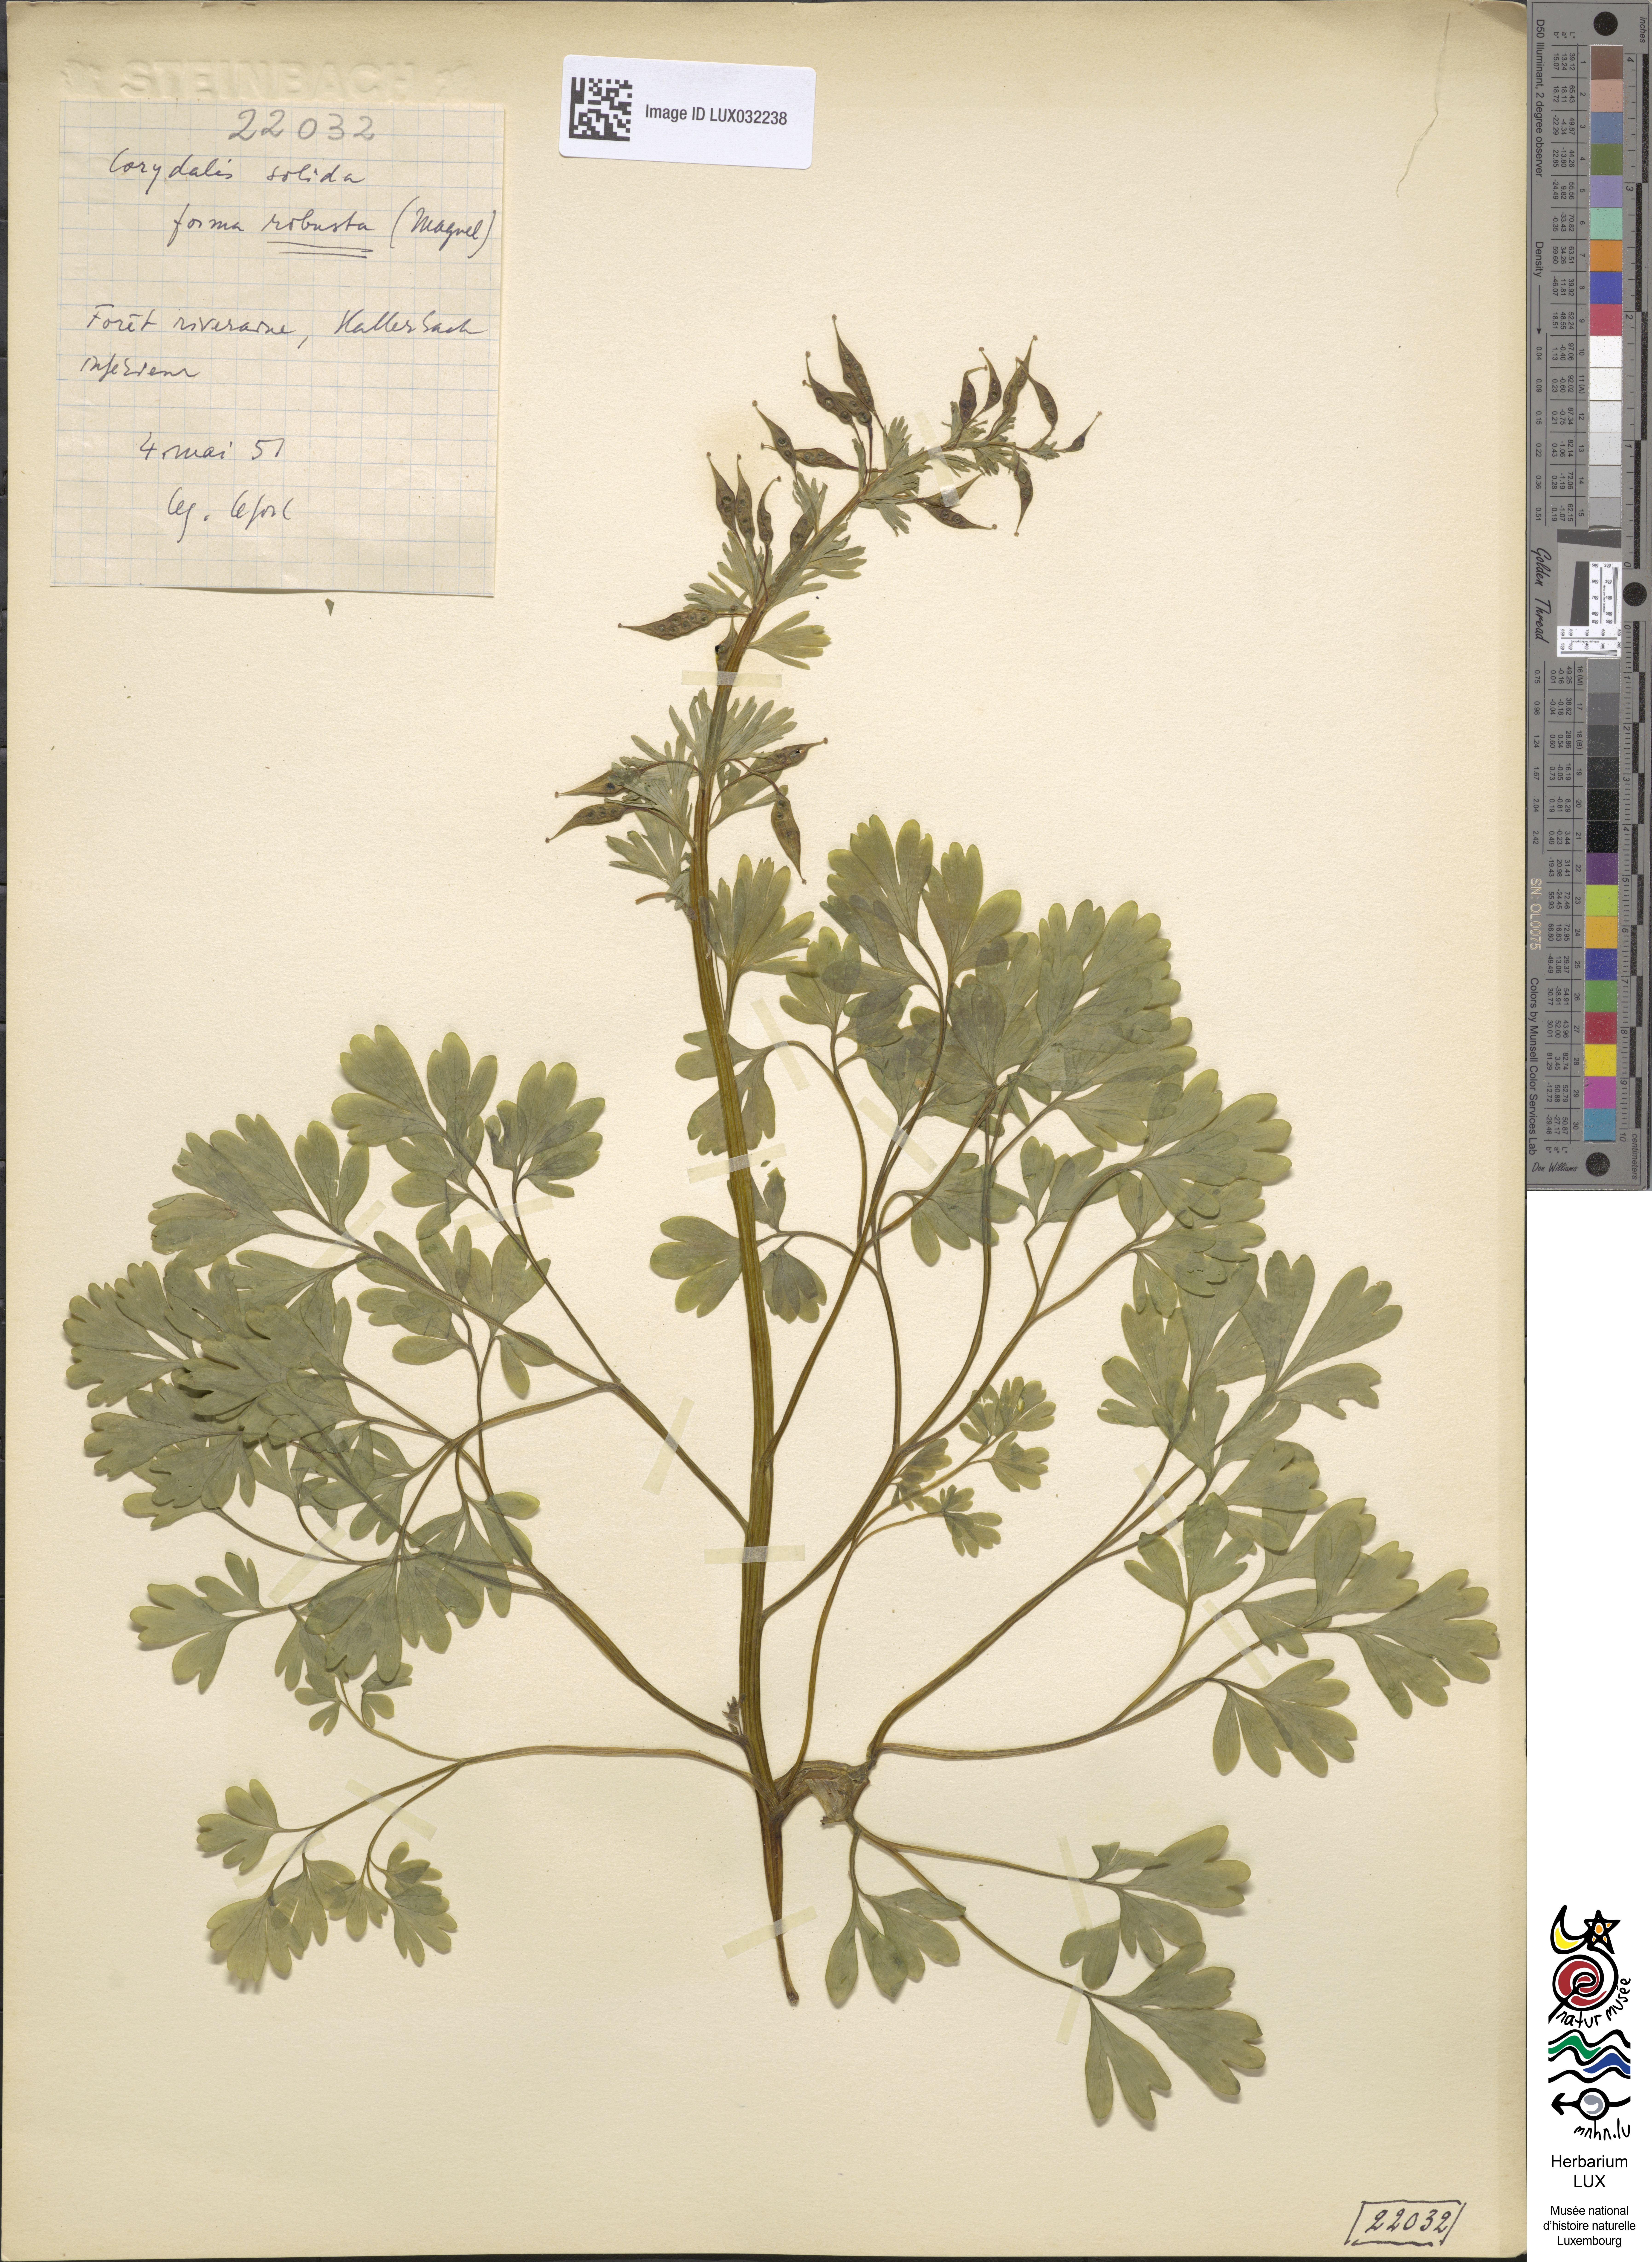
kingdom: Plantae
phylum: Tracheophyta
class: Magnoliopsida
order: Ranunculales
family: Papaveraceae
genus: Corydalis
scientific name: Corydalis solida
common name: Bird-in-a-bush
